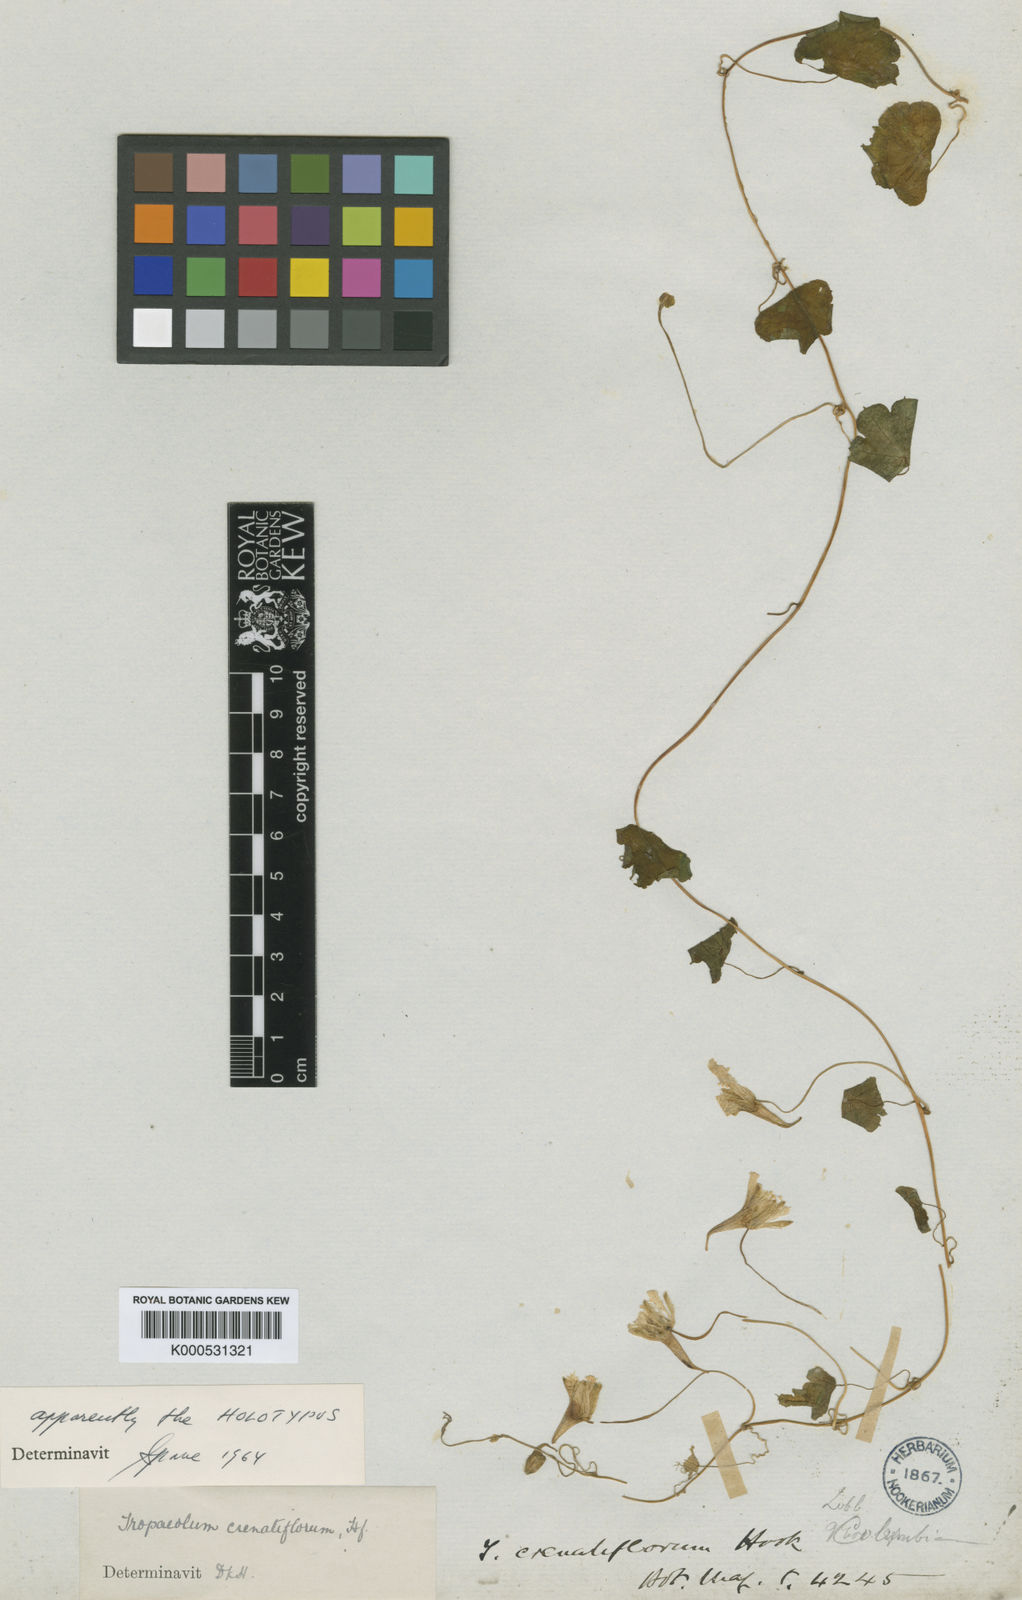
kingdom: Plantae
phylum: Tracheophyta
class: Magnoliopsida
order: Brassicales
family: Tropaeolaceae
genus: Tropaeolum
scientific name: Tropaeolum crenatiflorum
